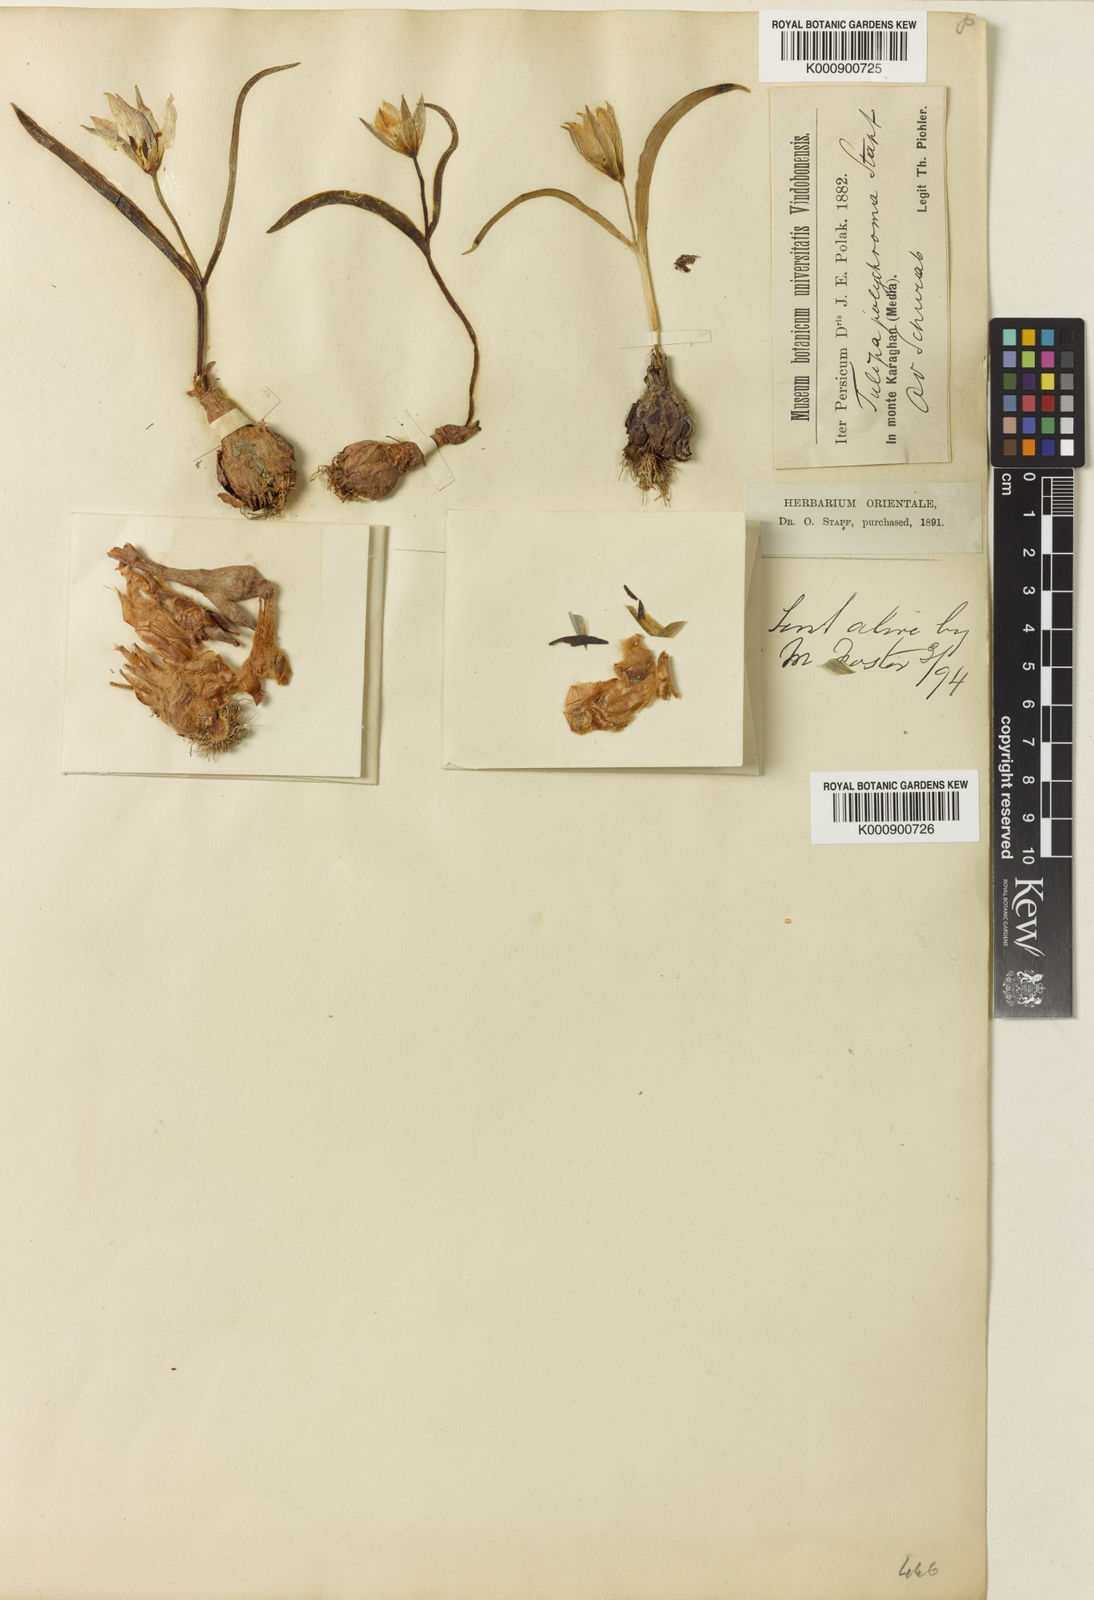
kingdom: Plantae
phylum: Tracheophyta
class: Liliopsida
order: Liliales
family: Liliaceae
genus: Tulipa
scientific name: Tulipa biflora
